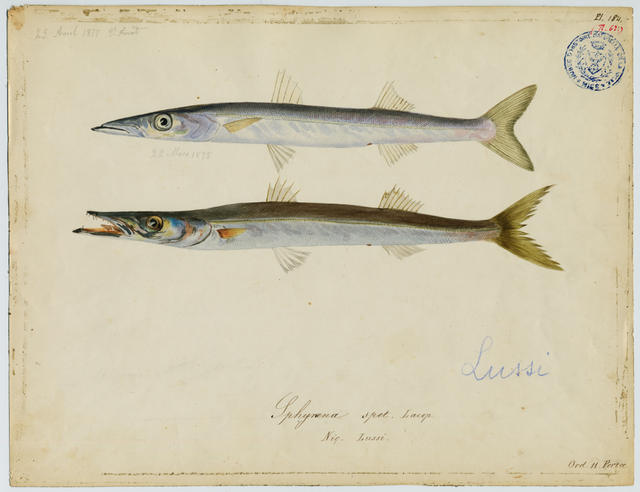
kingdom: Animalia
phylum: Chordata
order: Perciformes
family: Sphyraenidae
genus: Sphyraena
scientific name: Sphyraena sphyraena
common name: European barracuda
